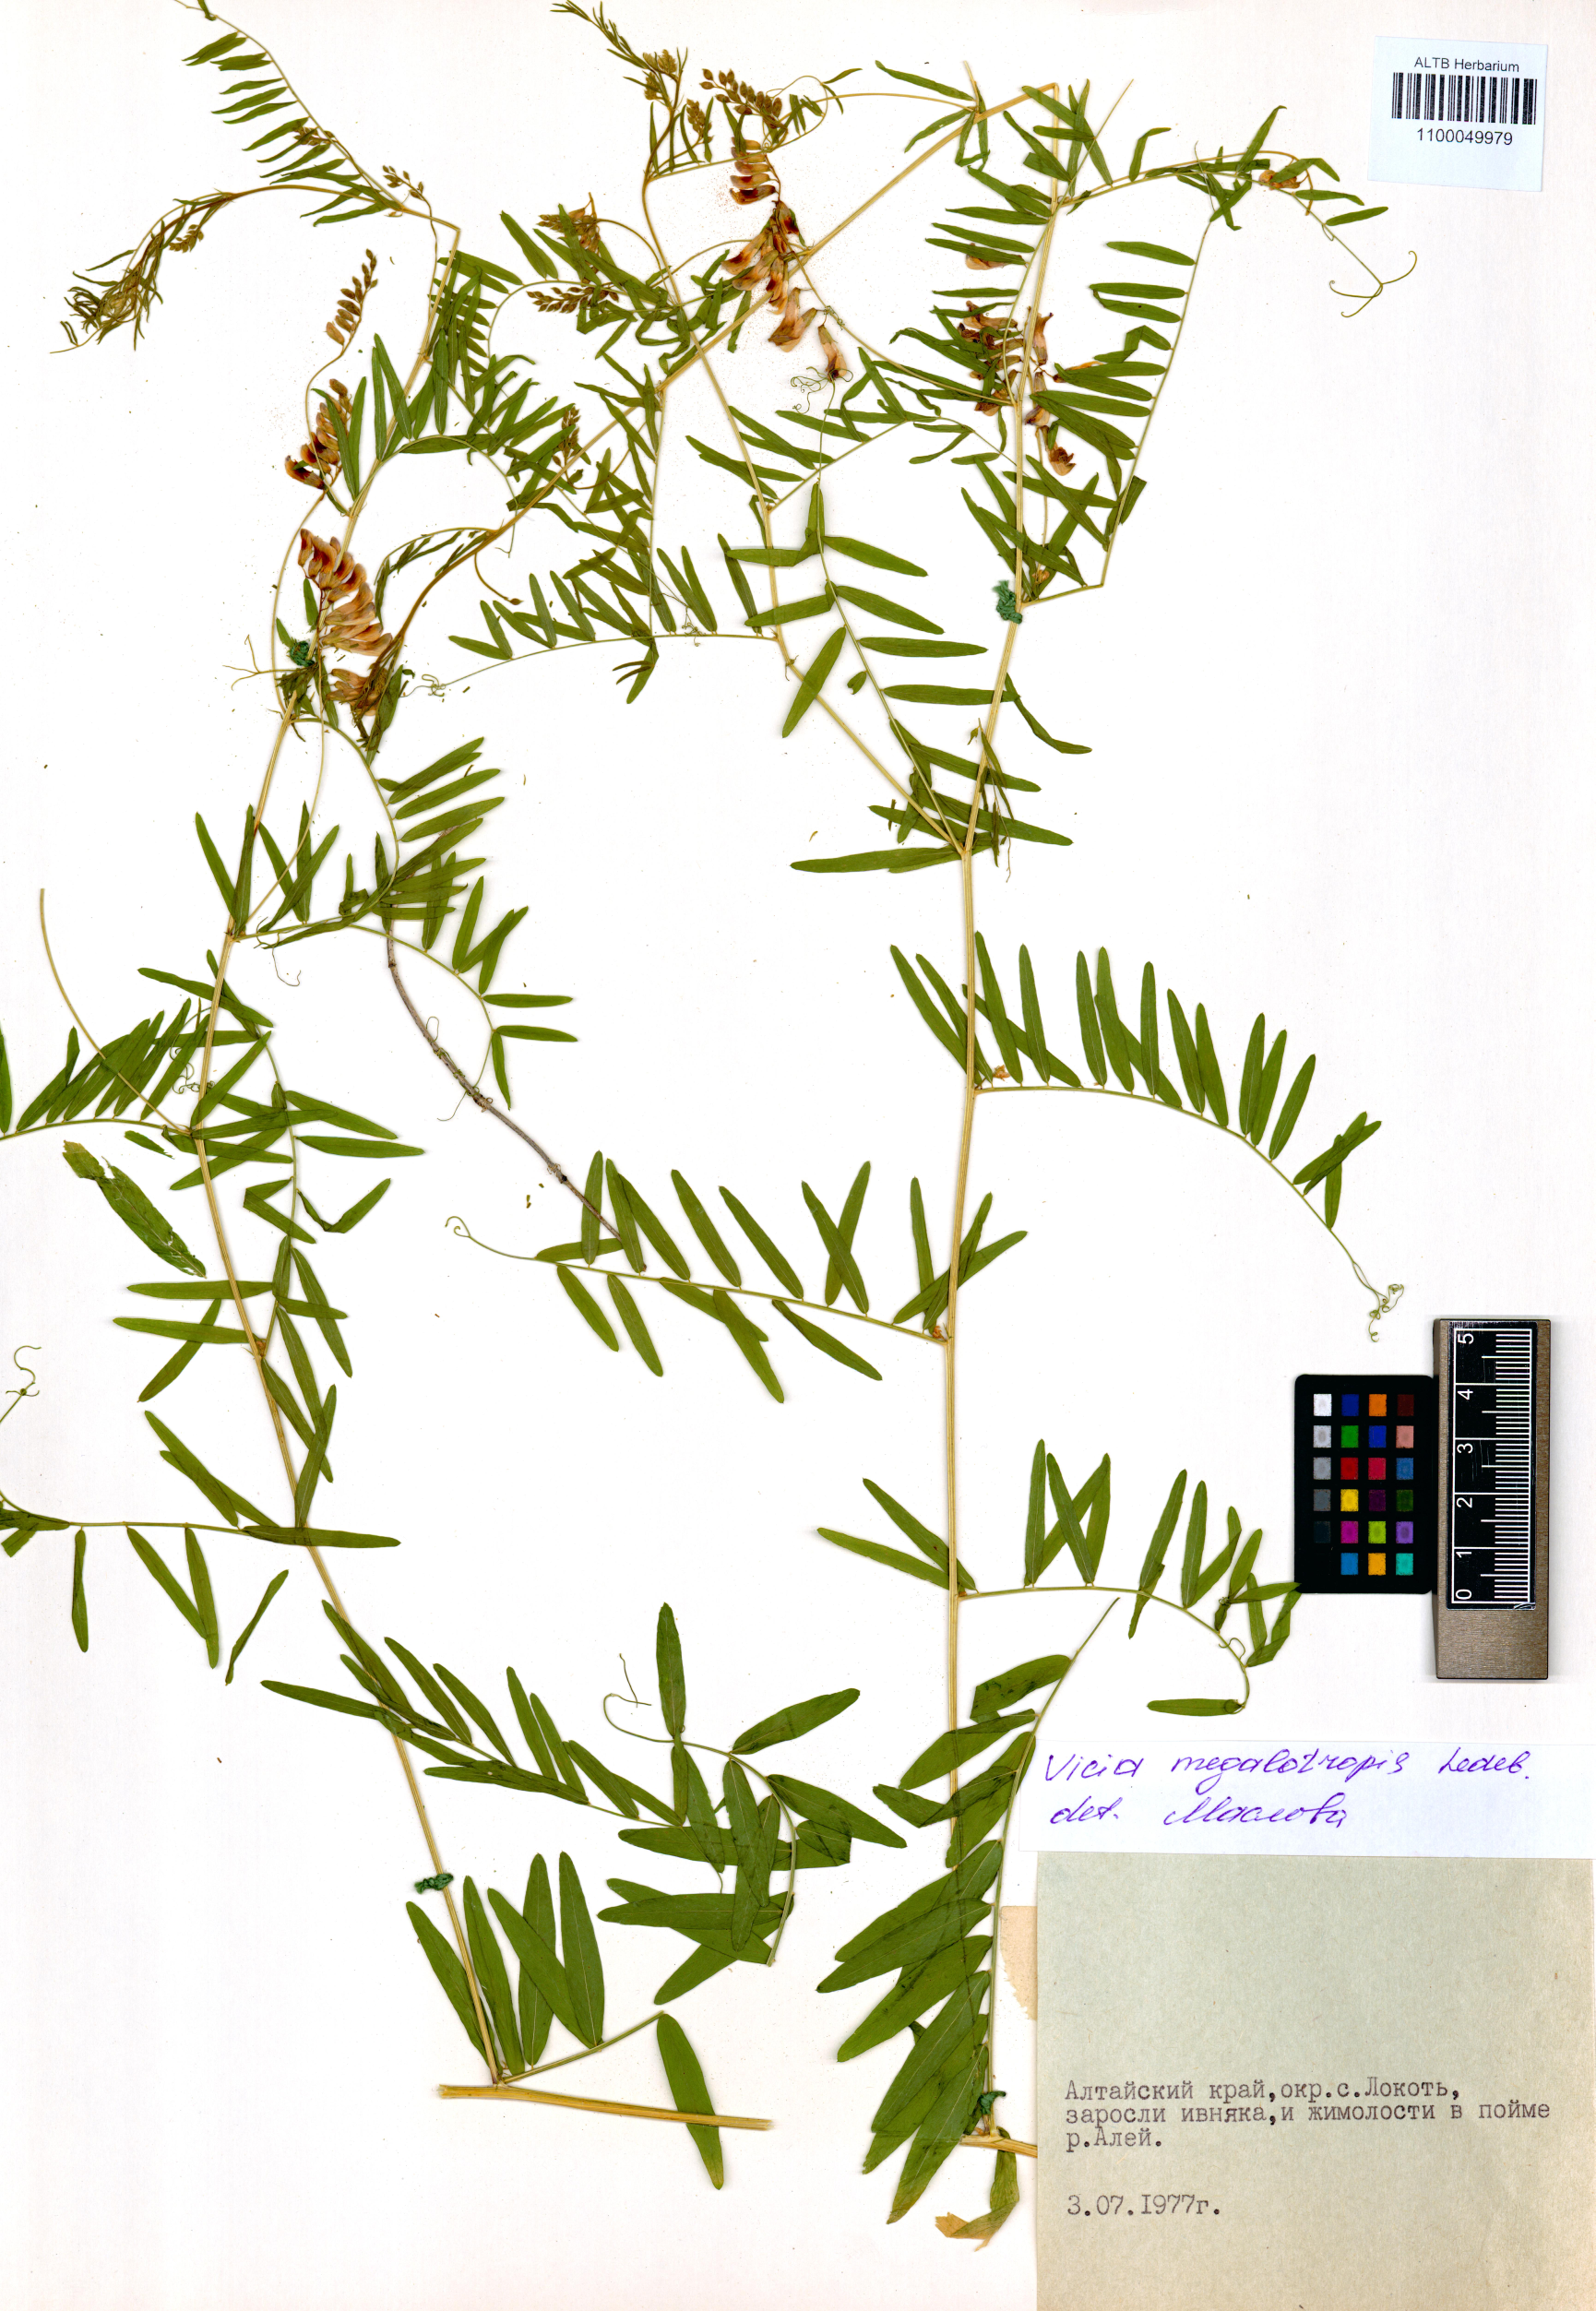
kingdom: Plantae
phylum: Tracheophyta
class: Magnoliopsida
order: Fabales
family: Fabaceae
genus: Vicia
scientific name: Vicia megalotropis
